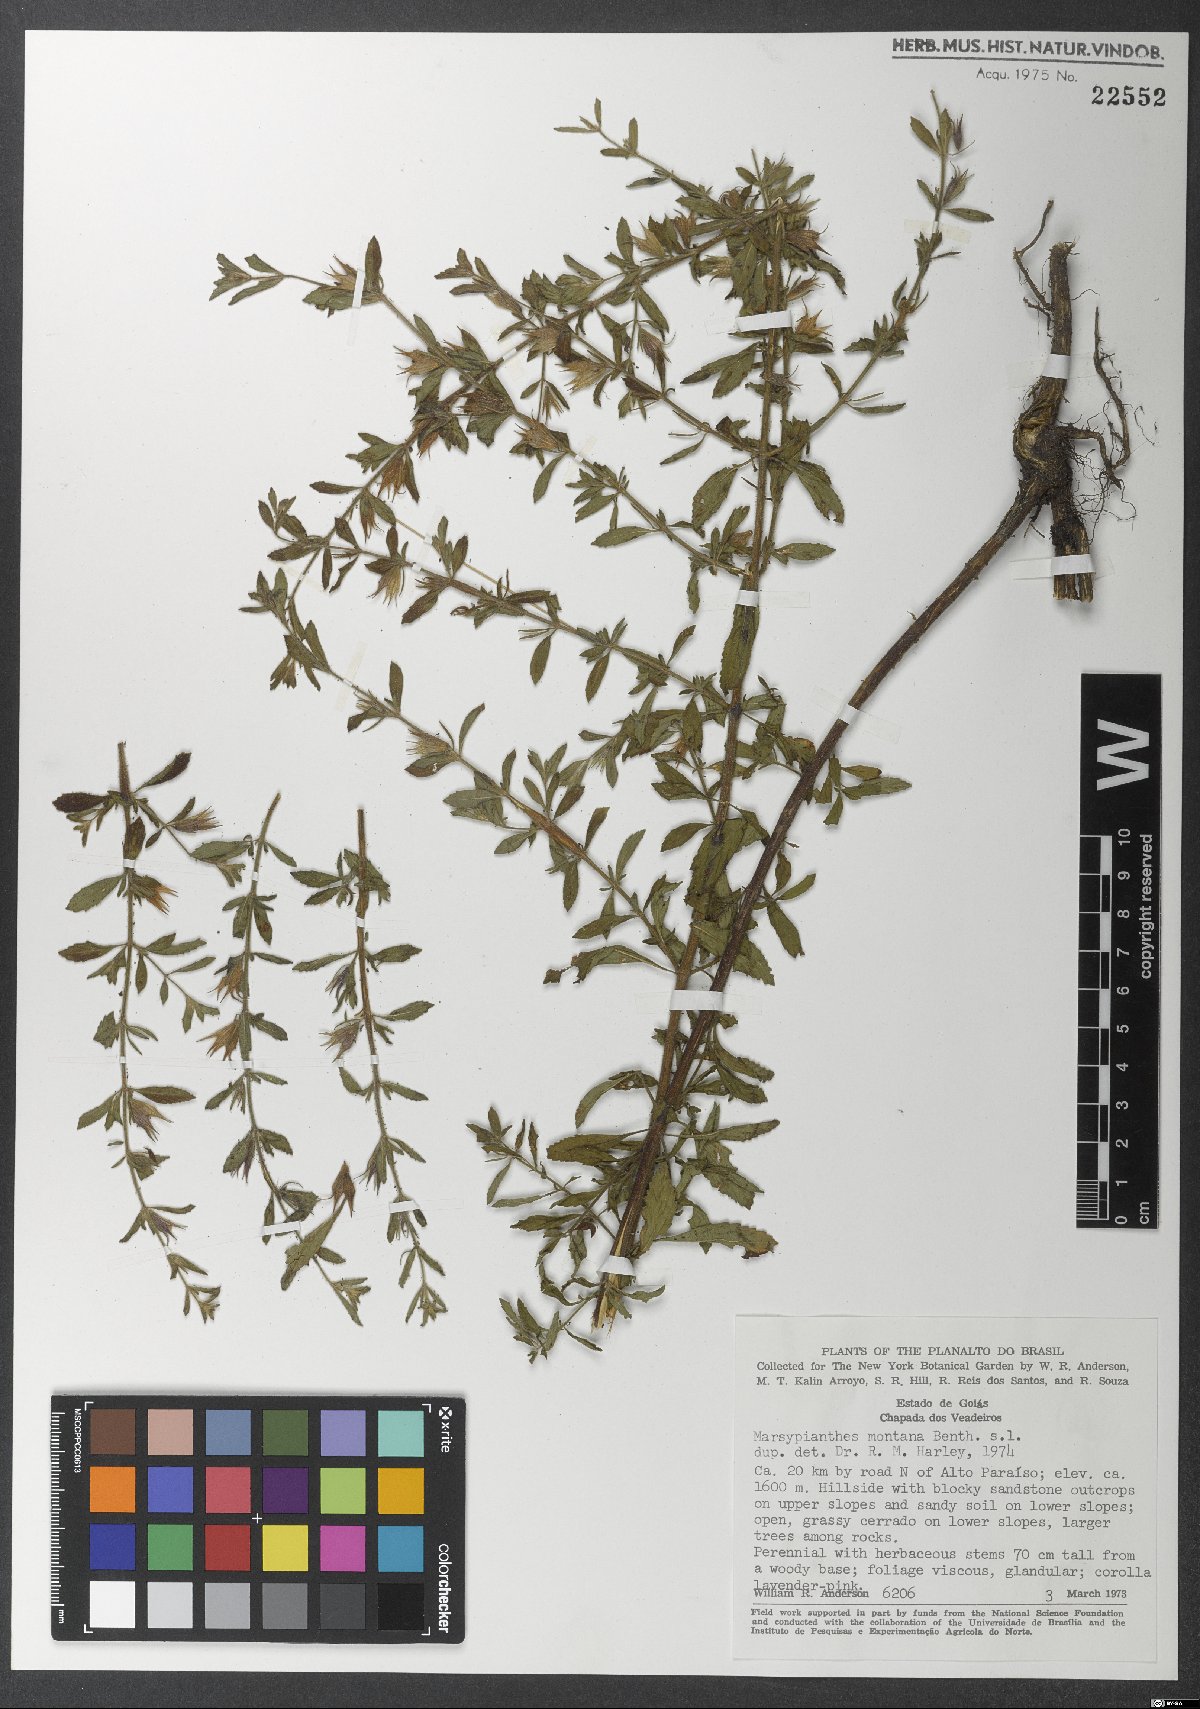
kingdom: Plantae
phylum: Tracheophyta
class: Magnoliopsida
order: Lamiales
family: Lamiaceae
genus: Marsypianthes
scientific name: Marsypianthes montana
